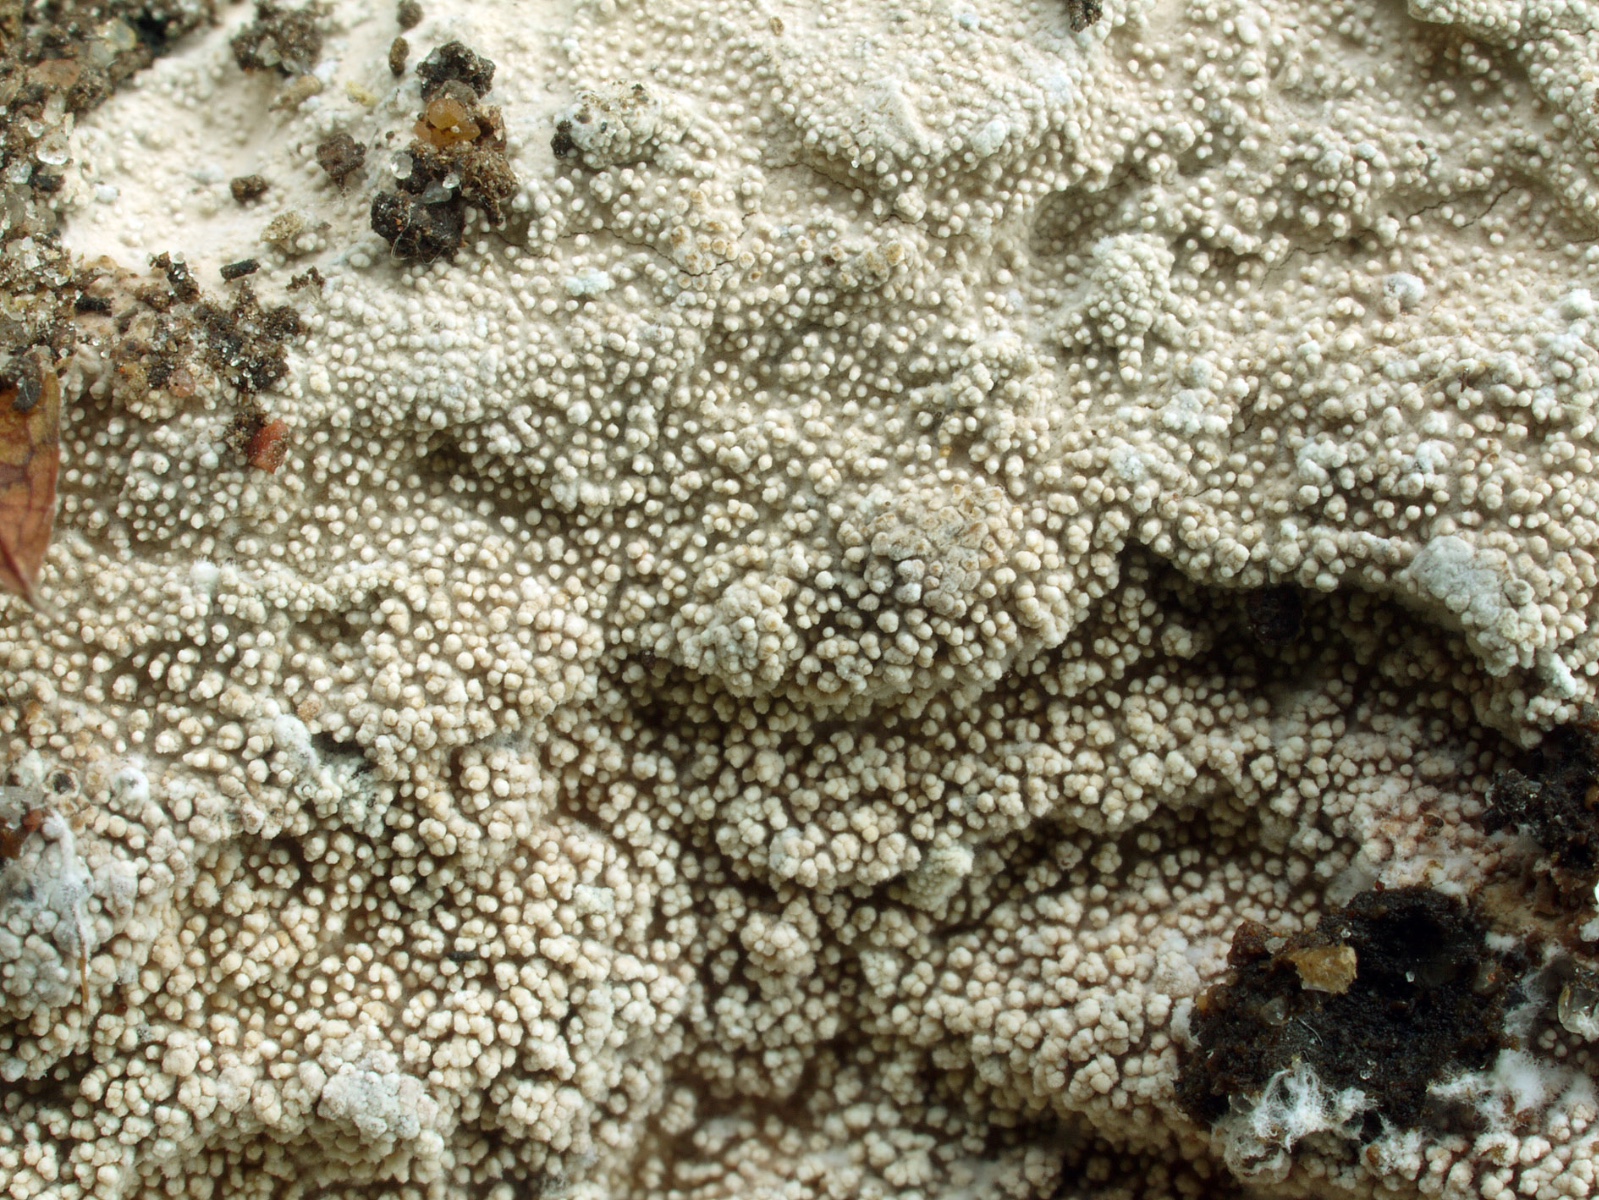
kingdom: Fungi
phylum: Basidiomycota
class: Agaricomycetes
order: Russulales
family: Xenasmataceae
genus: Xenasmatella
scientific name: Xenasmatella alnicola
